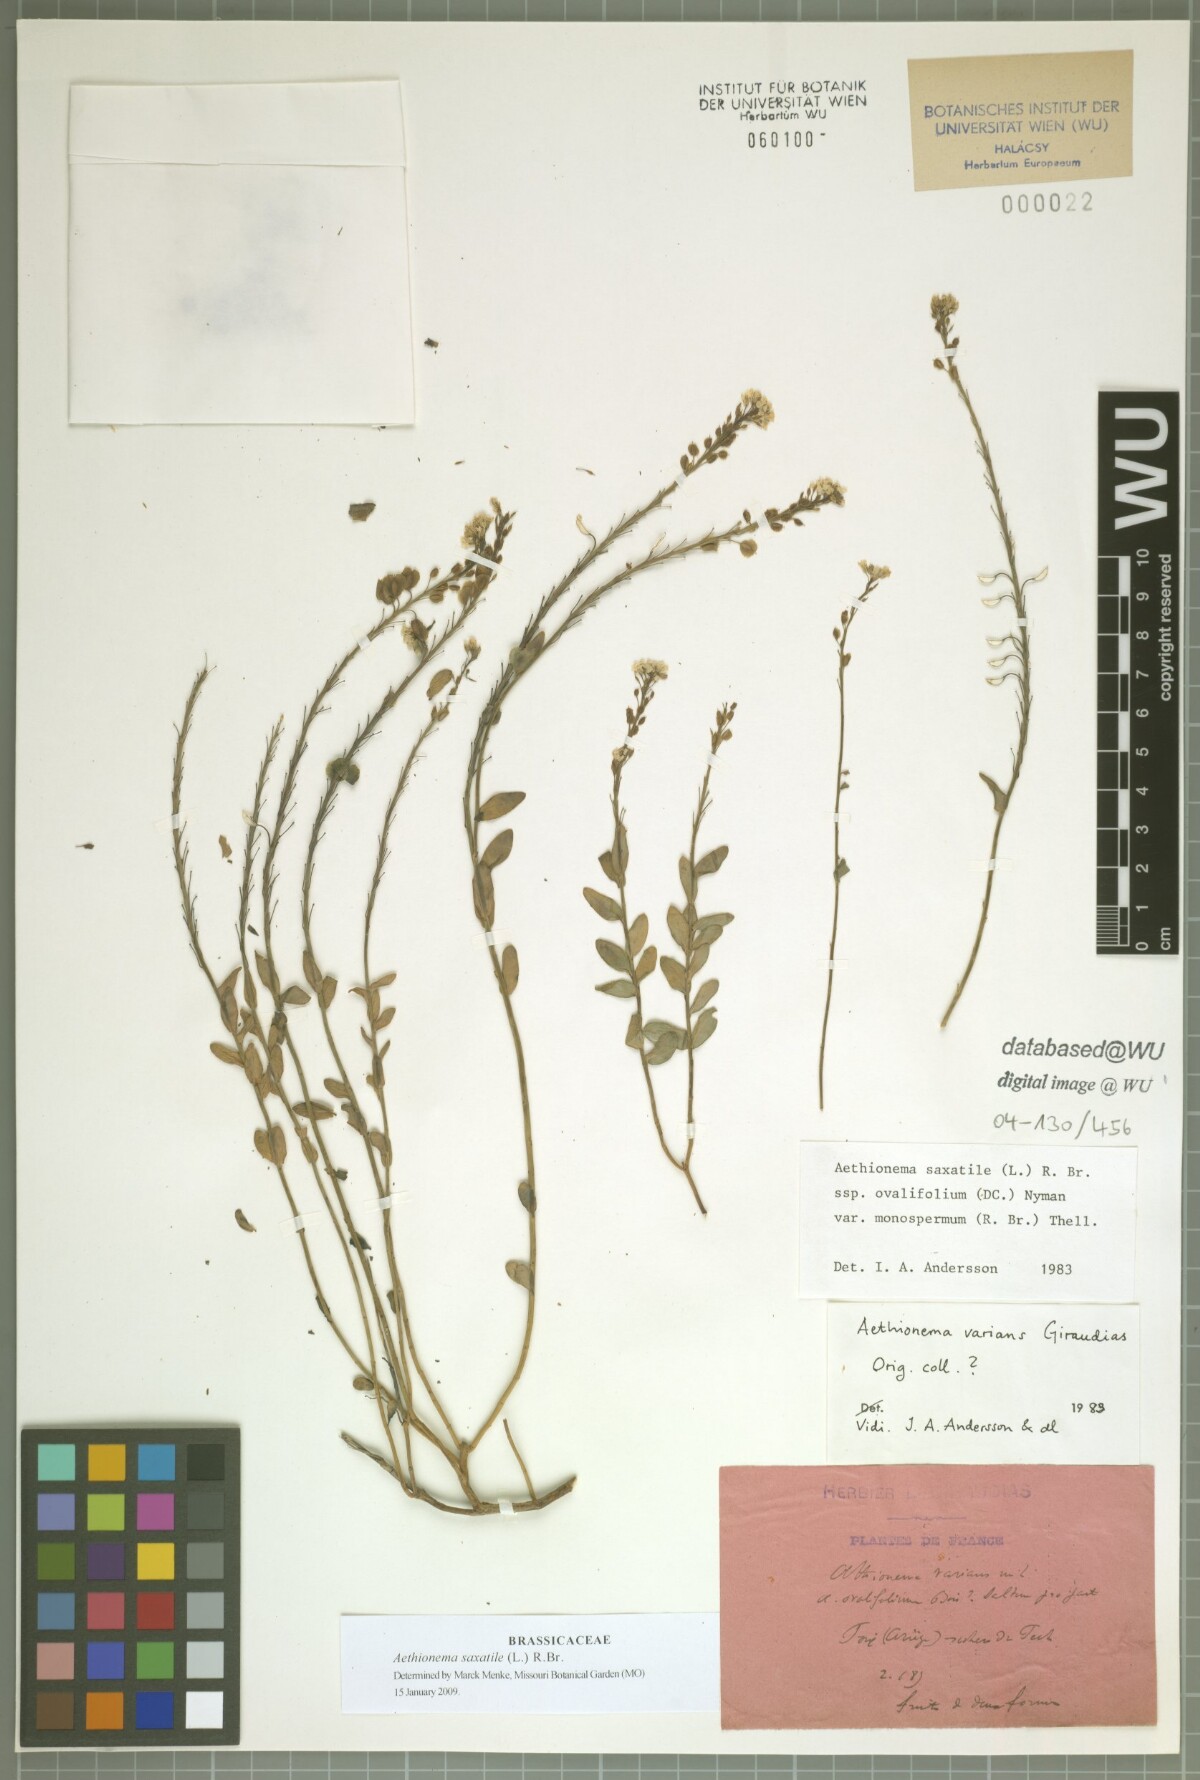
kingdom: Plantae
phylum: Tracheophyta
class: Magnoliopsida
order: Brassicales
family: Brassicaceae
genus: Aethionema
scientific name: Aethionema saxatile
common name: Burnt candytuft
